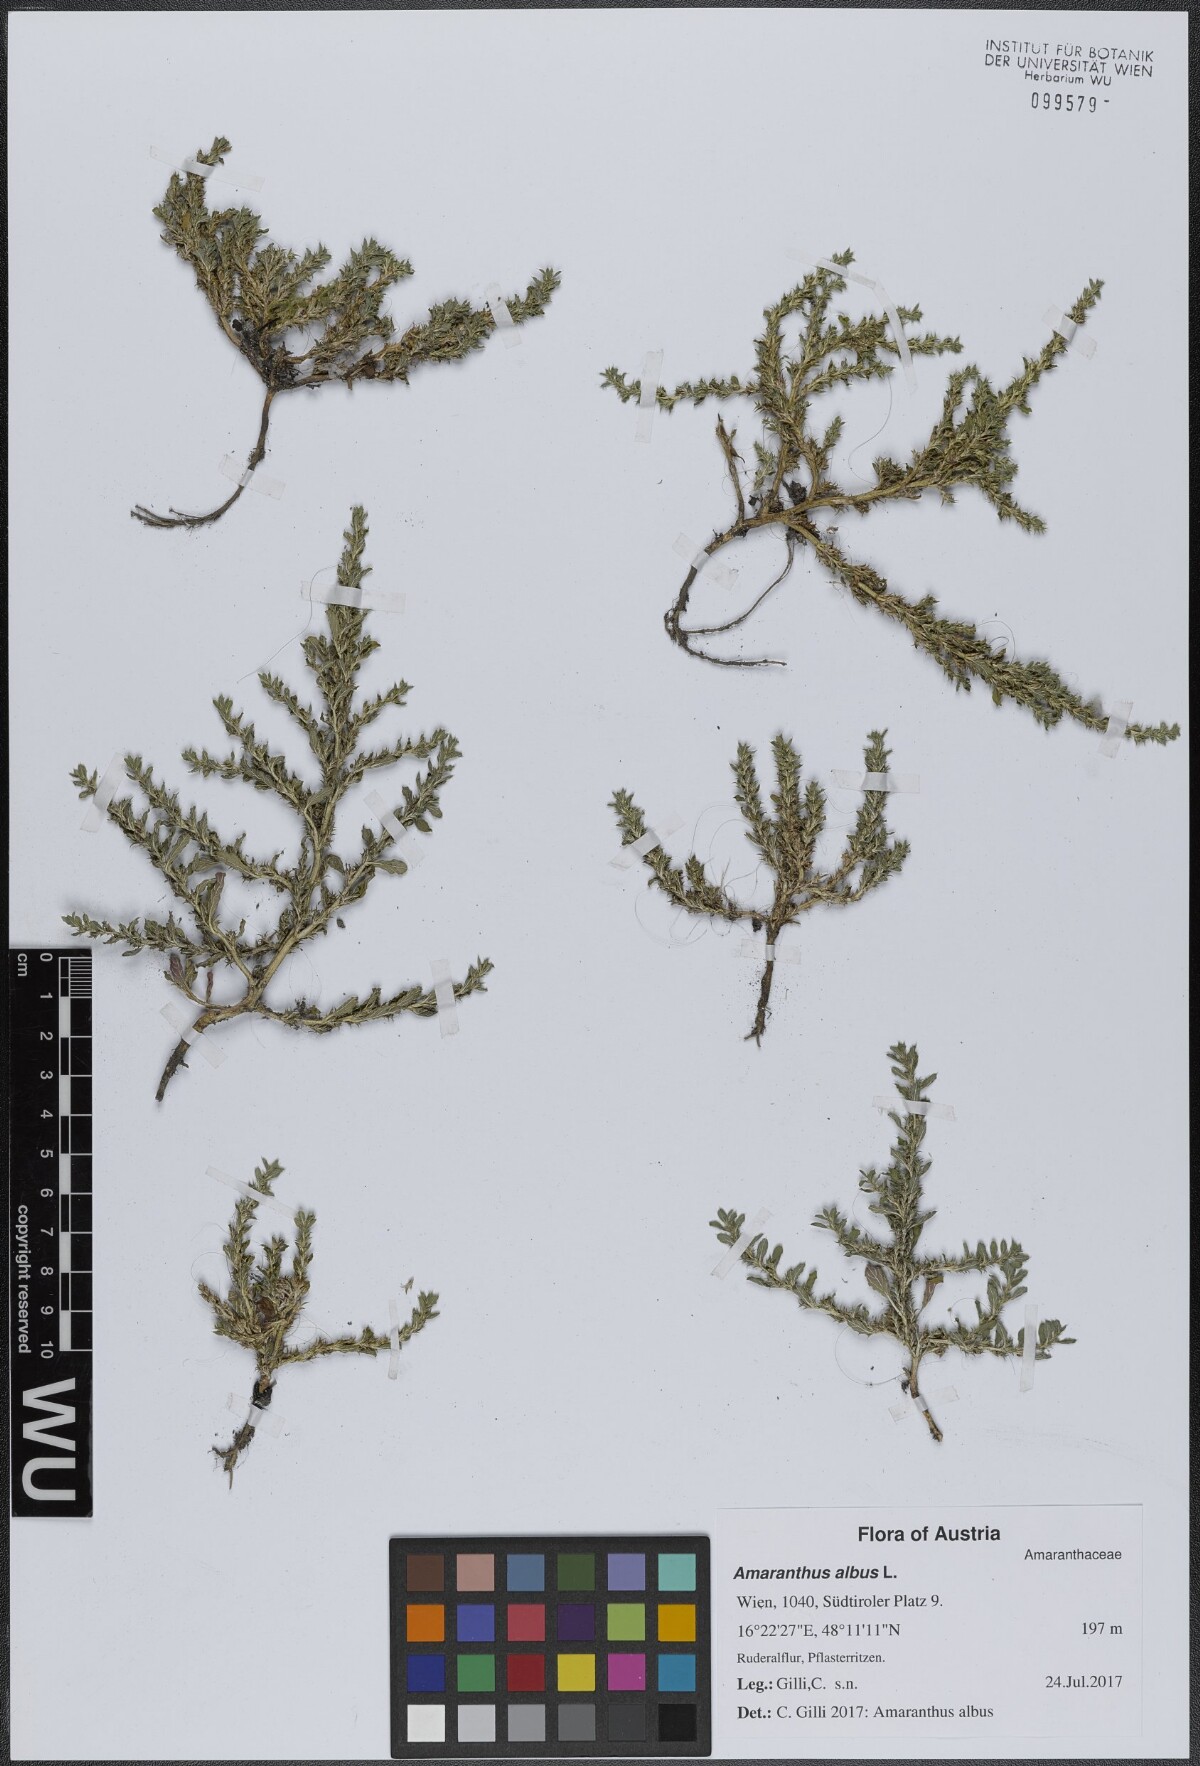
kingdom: Plantae
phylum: Tracheophyta
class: Magnoliopsida
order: Caryophyllales
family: Amaranthaceae
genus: Amaranthus
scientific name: Amaranthus albus
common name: White pigweed
